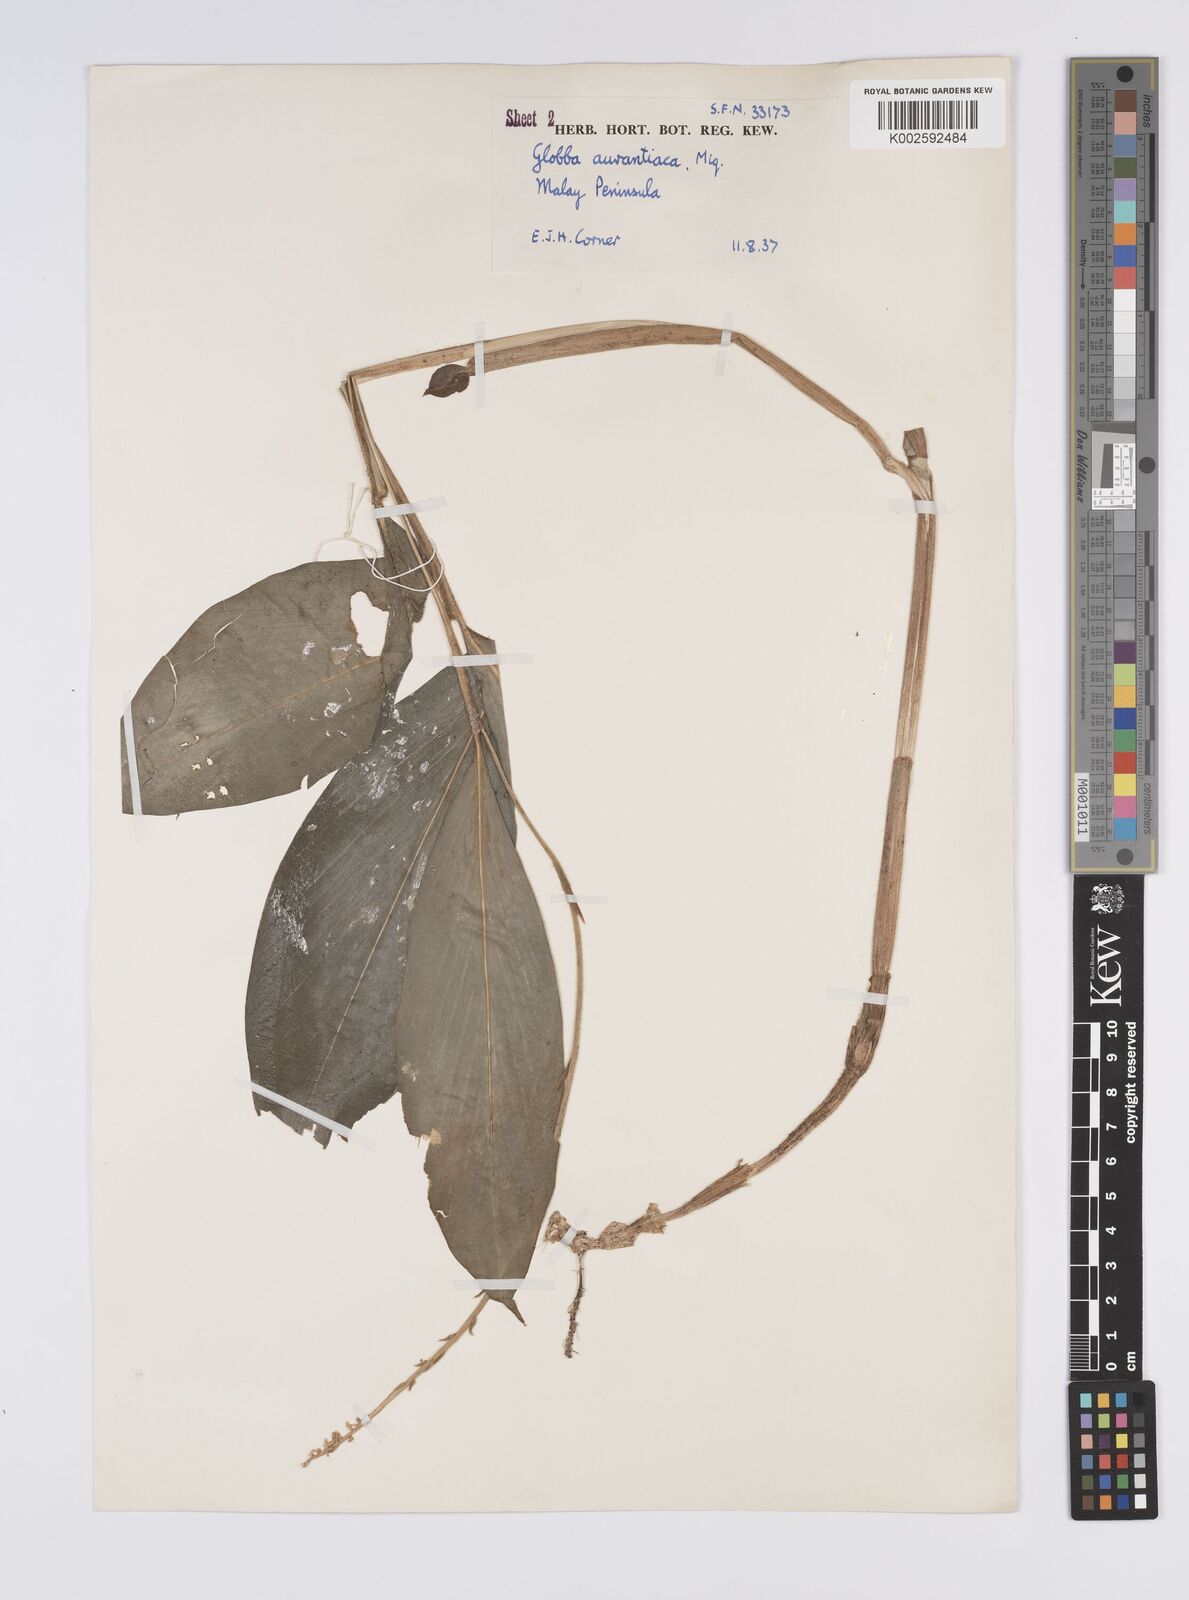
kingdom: Plantae
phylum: Tracheophyta
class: Liliopsida
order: Zingiberales
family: Zingiberaceae
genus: Globba
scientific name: Globba aurantiaca
